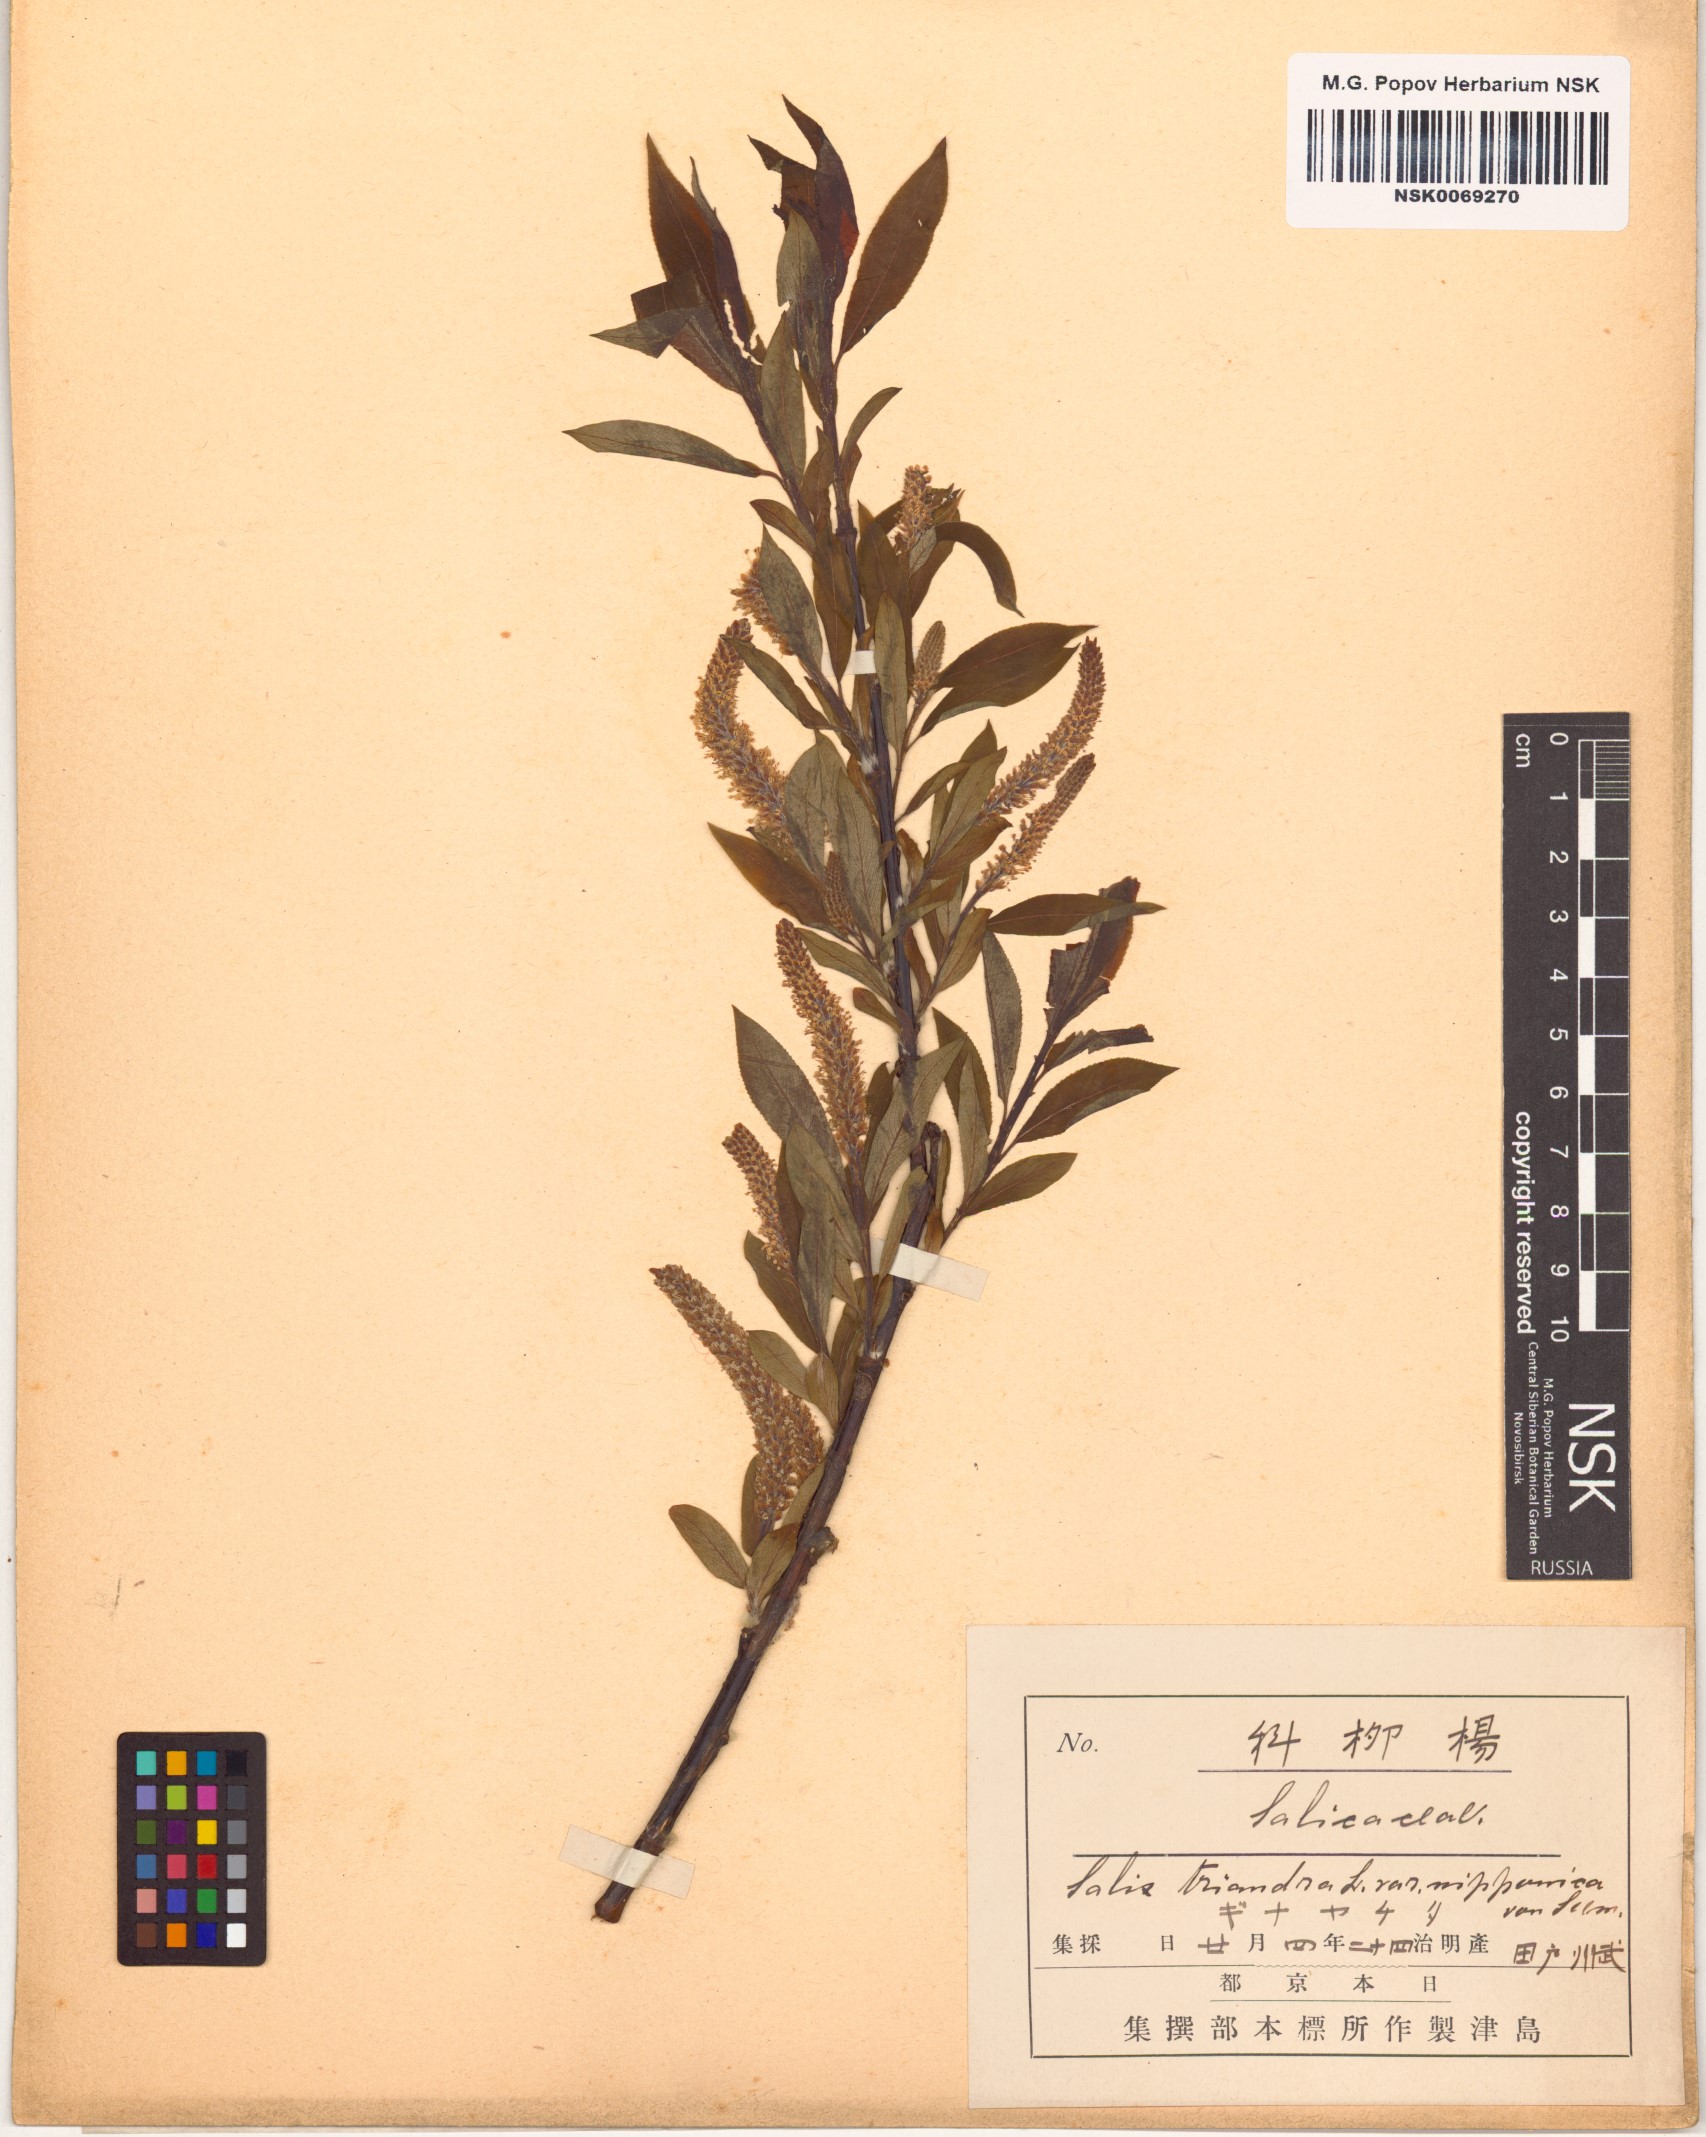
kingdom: Plantae
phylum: Tracheophyta
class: Magnoliopsida
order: Malpighiales
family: Salicaceae
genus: Salix
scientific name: Salix subfragilis
